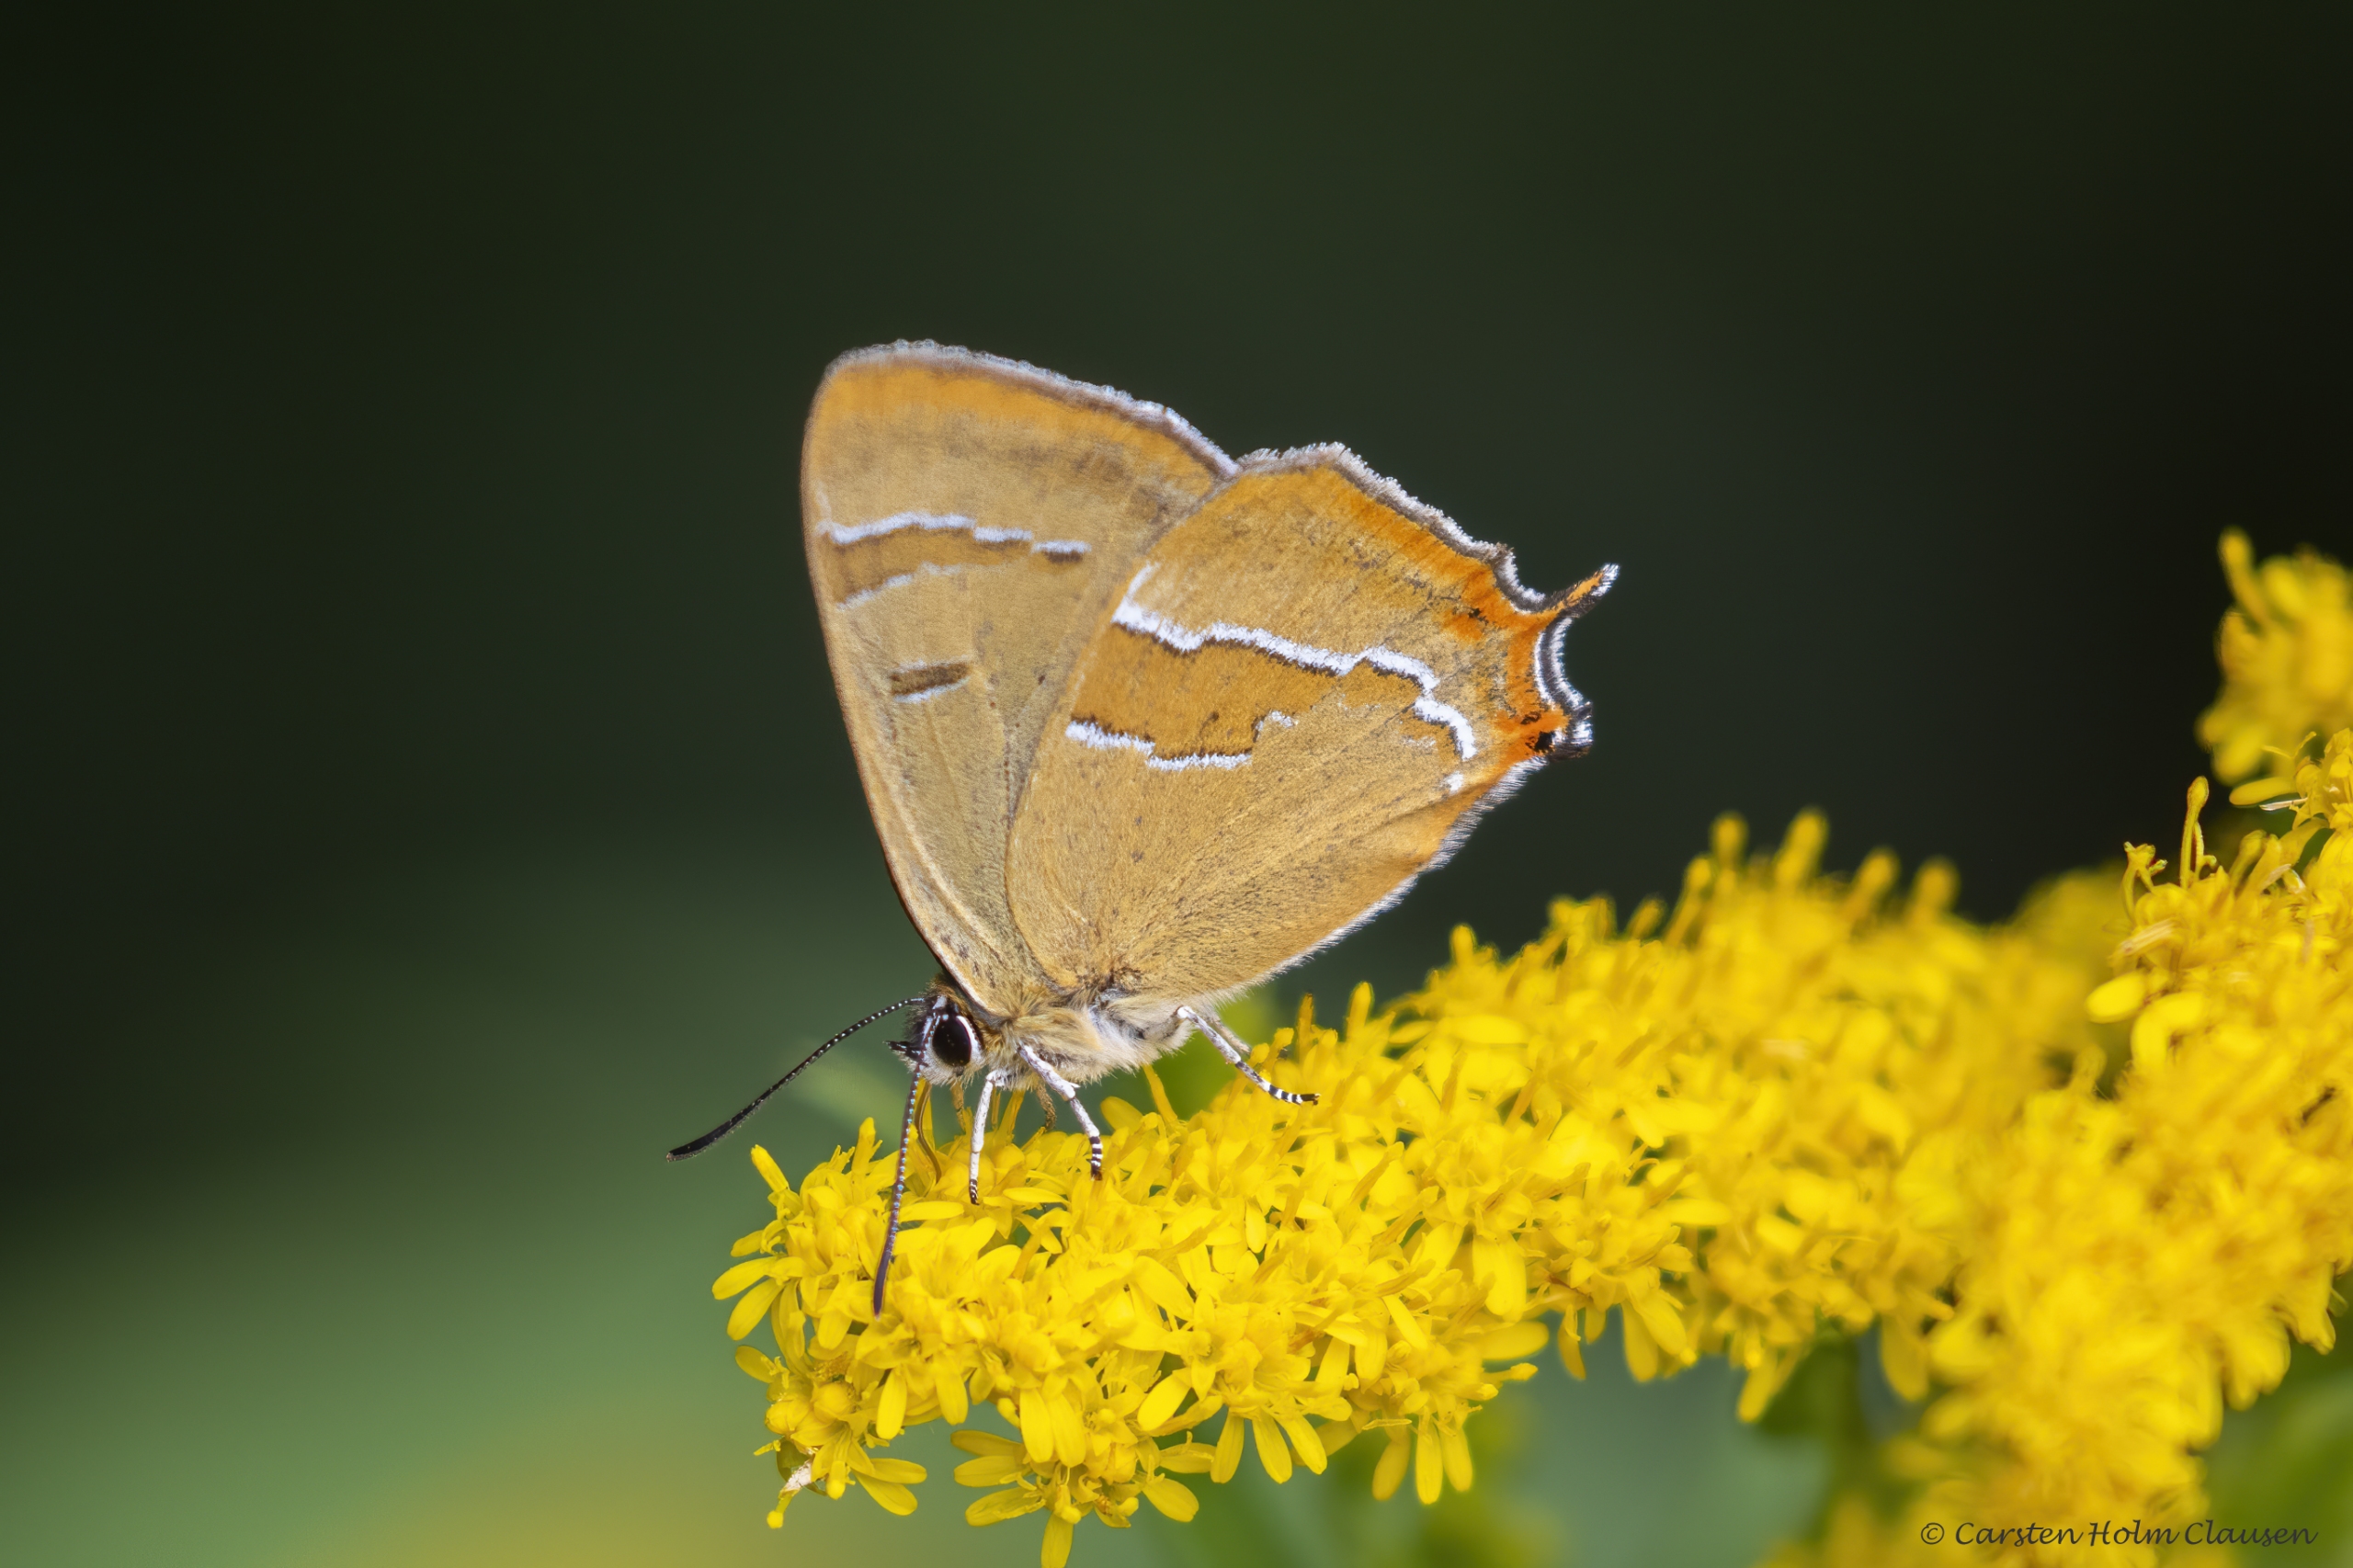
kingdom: Animalia
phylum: Arthropoda
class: Insecta
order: Lepidoptera
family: Lycaenidae
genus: Thecla
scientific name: Thecla betulae
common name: Guldhale
